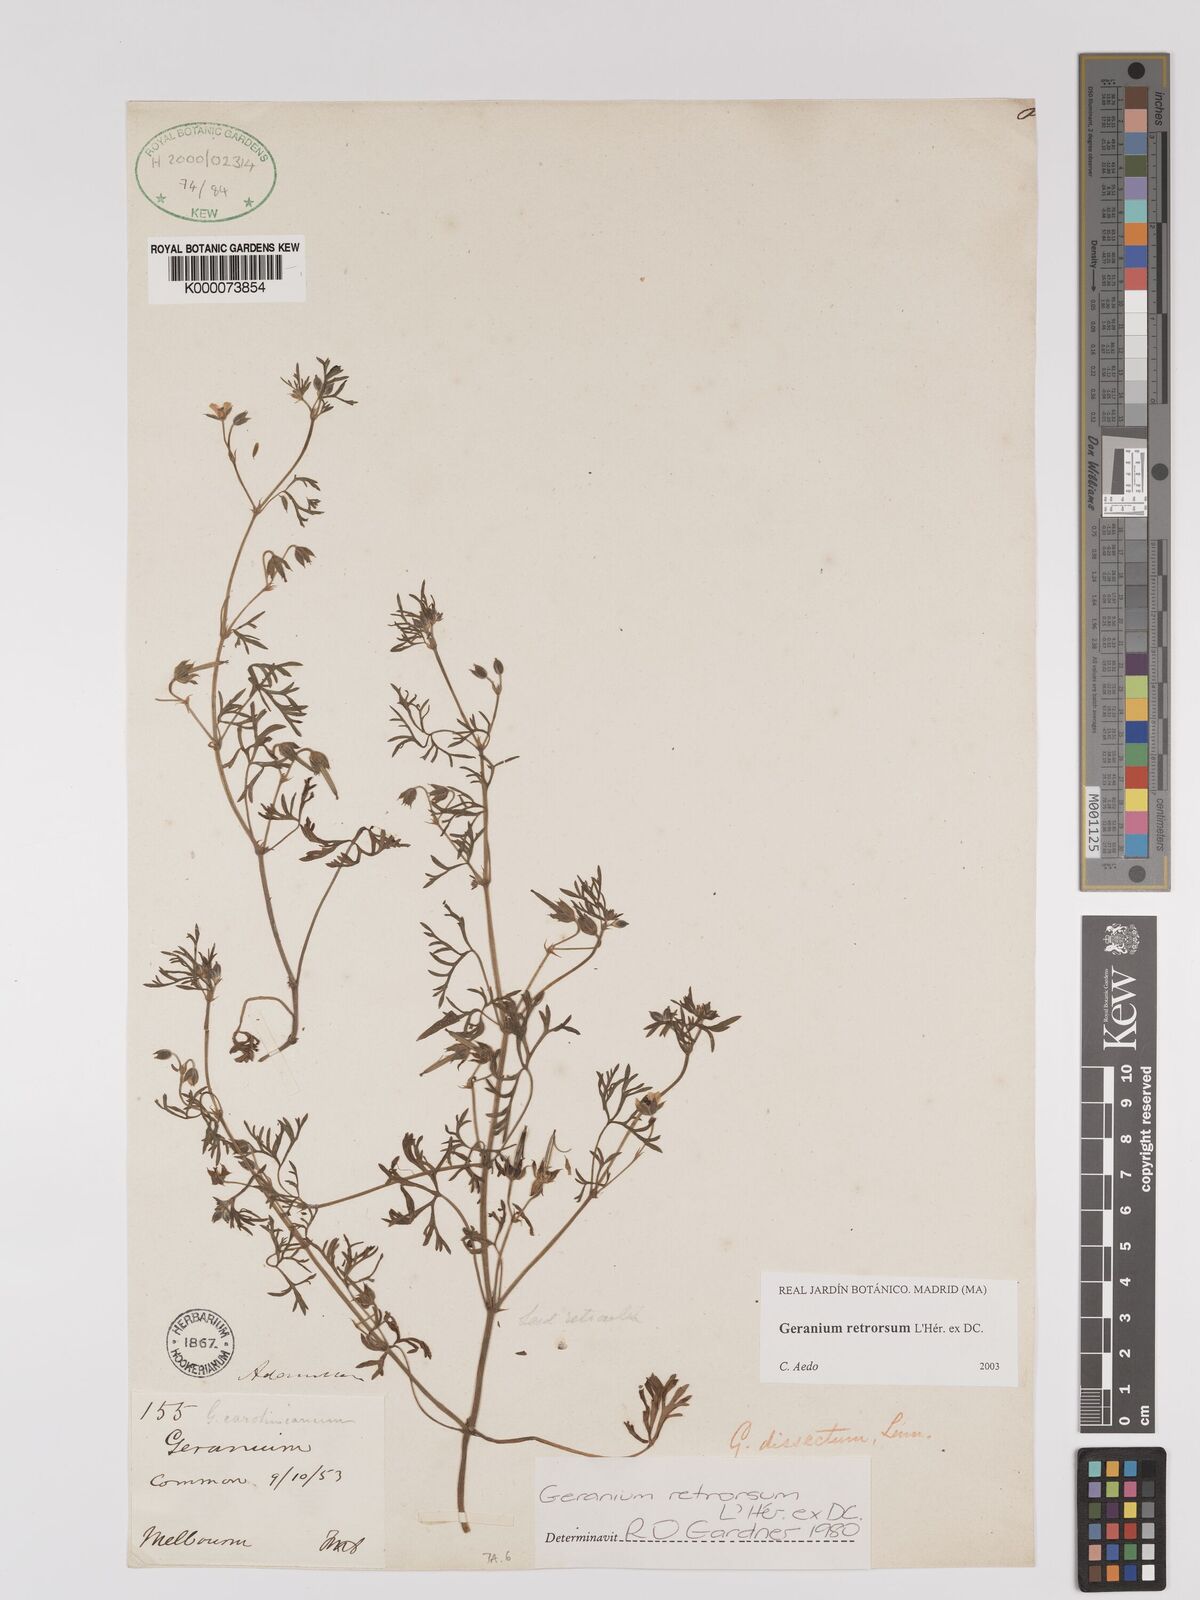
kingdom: Plantae
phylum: Tracheophyta
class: Magnoliopsida
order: Geraniales
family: Geraniaceae
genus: Geranium
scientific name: Geranium retrorsum
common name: New zealand geranium
